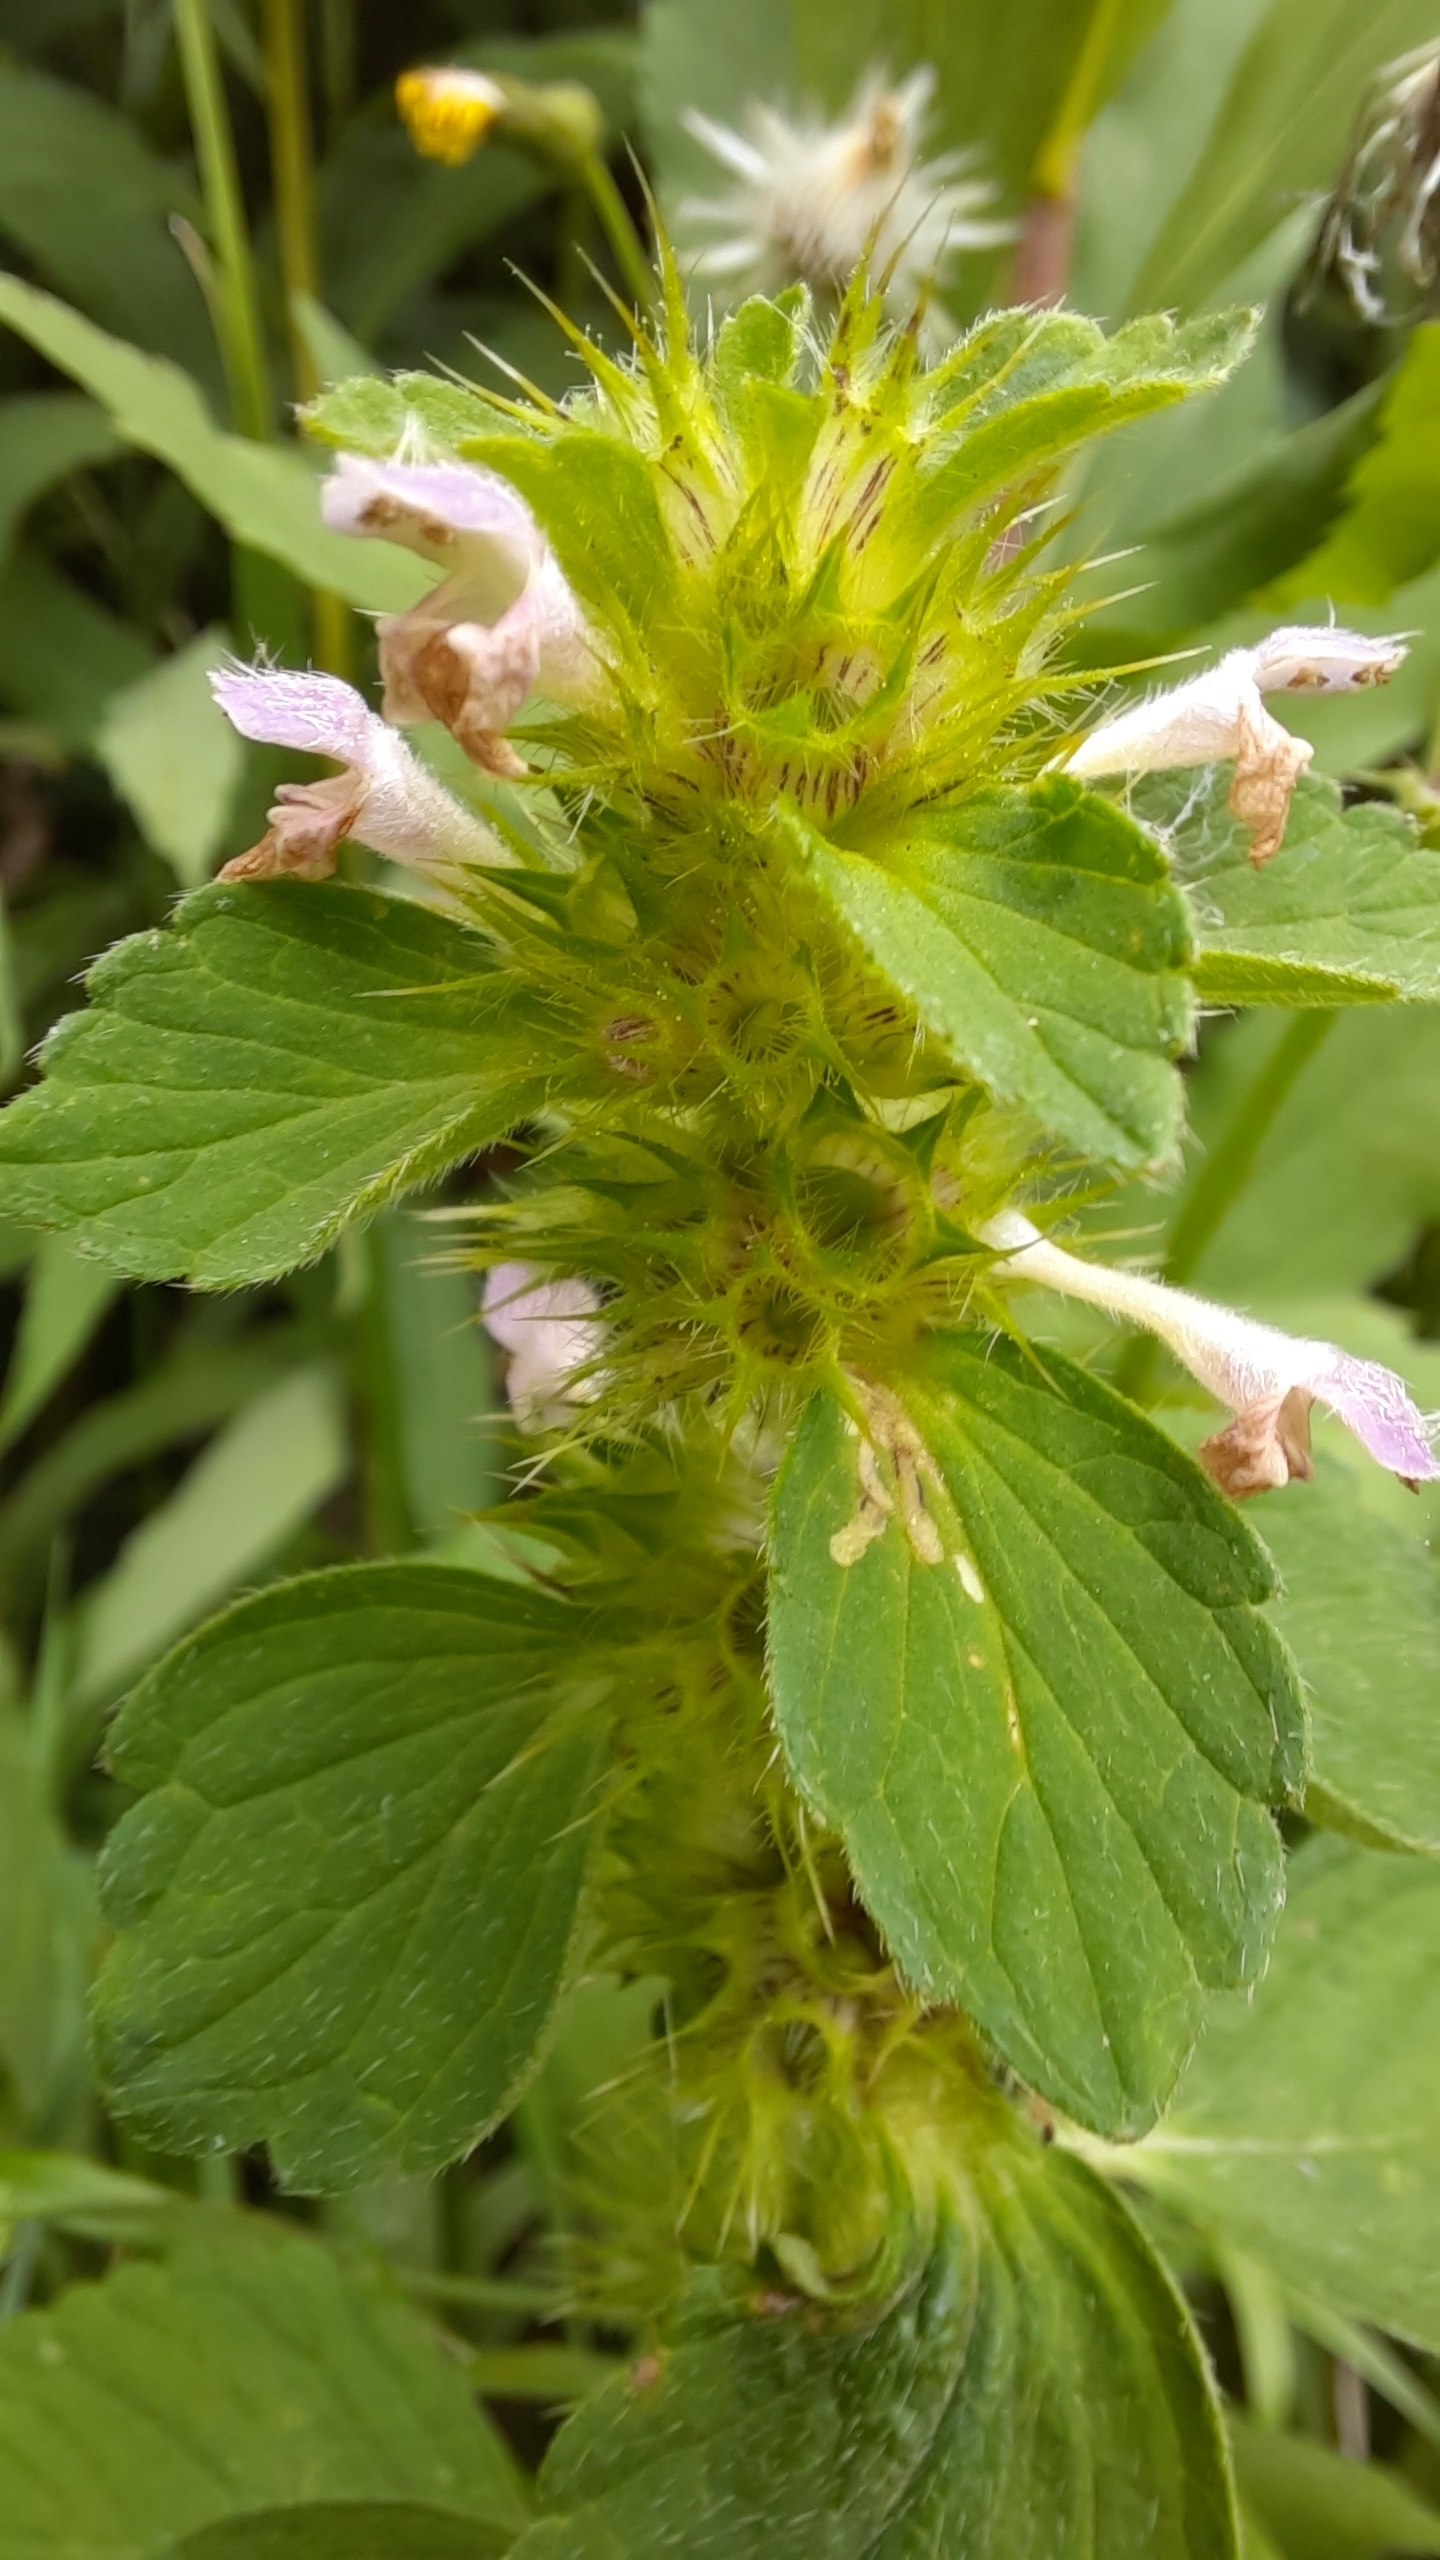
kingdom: Plantae
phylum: Tracheophyta
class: Magnoliopsida
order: Lamiales
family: Lamiaceae
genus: Galeopsis
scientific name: Galeopsis bifida
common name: Skov-hanekro
